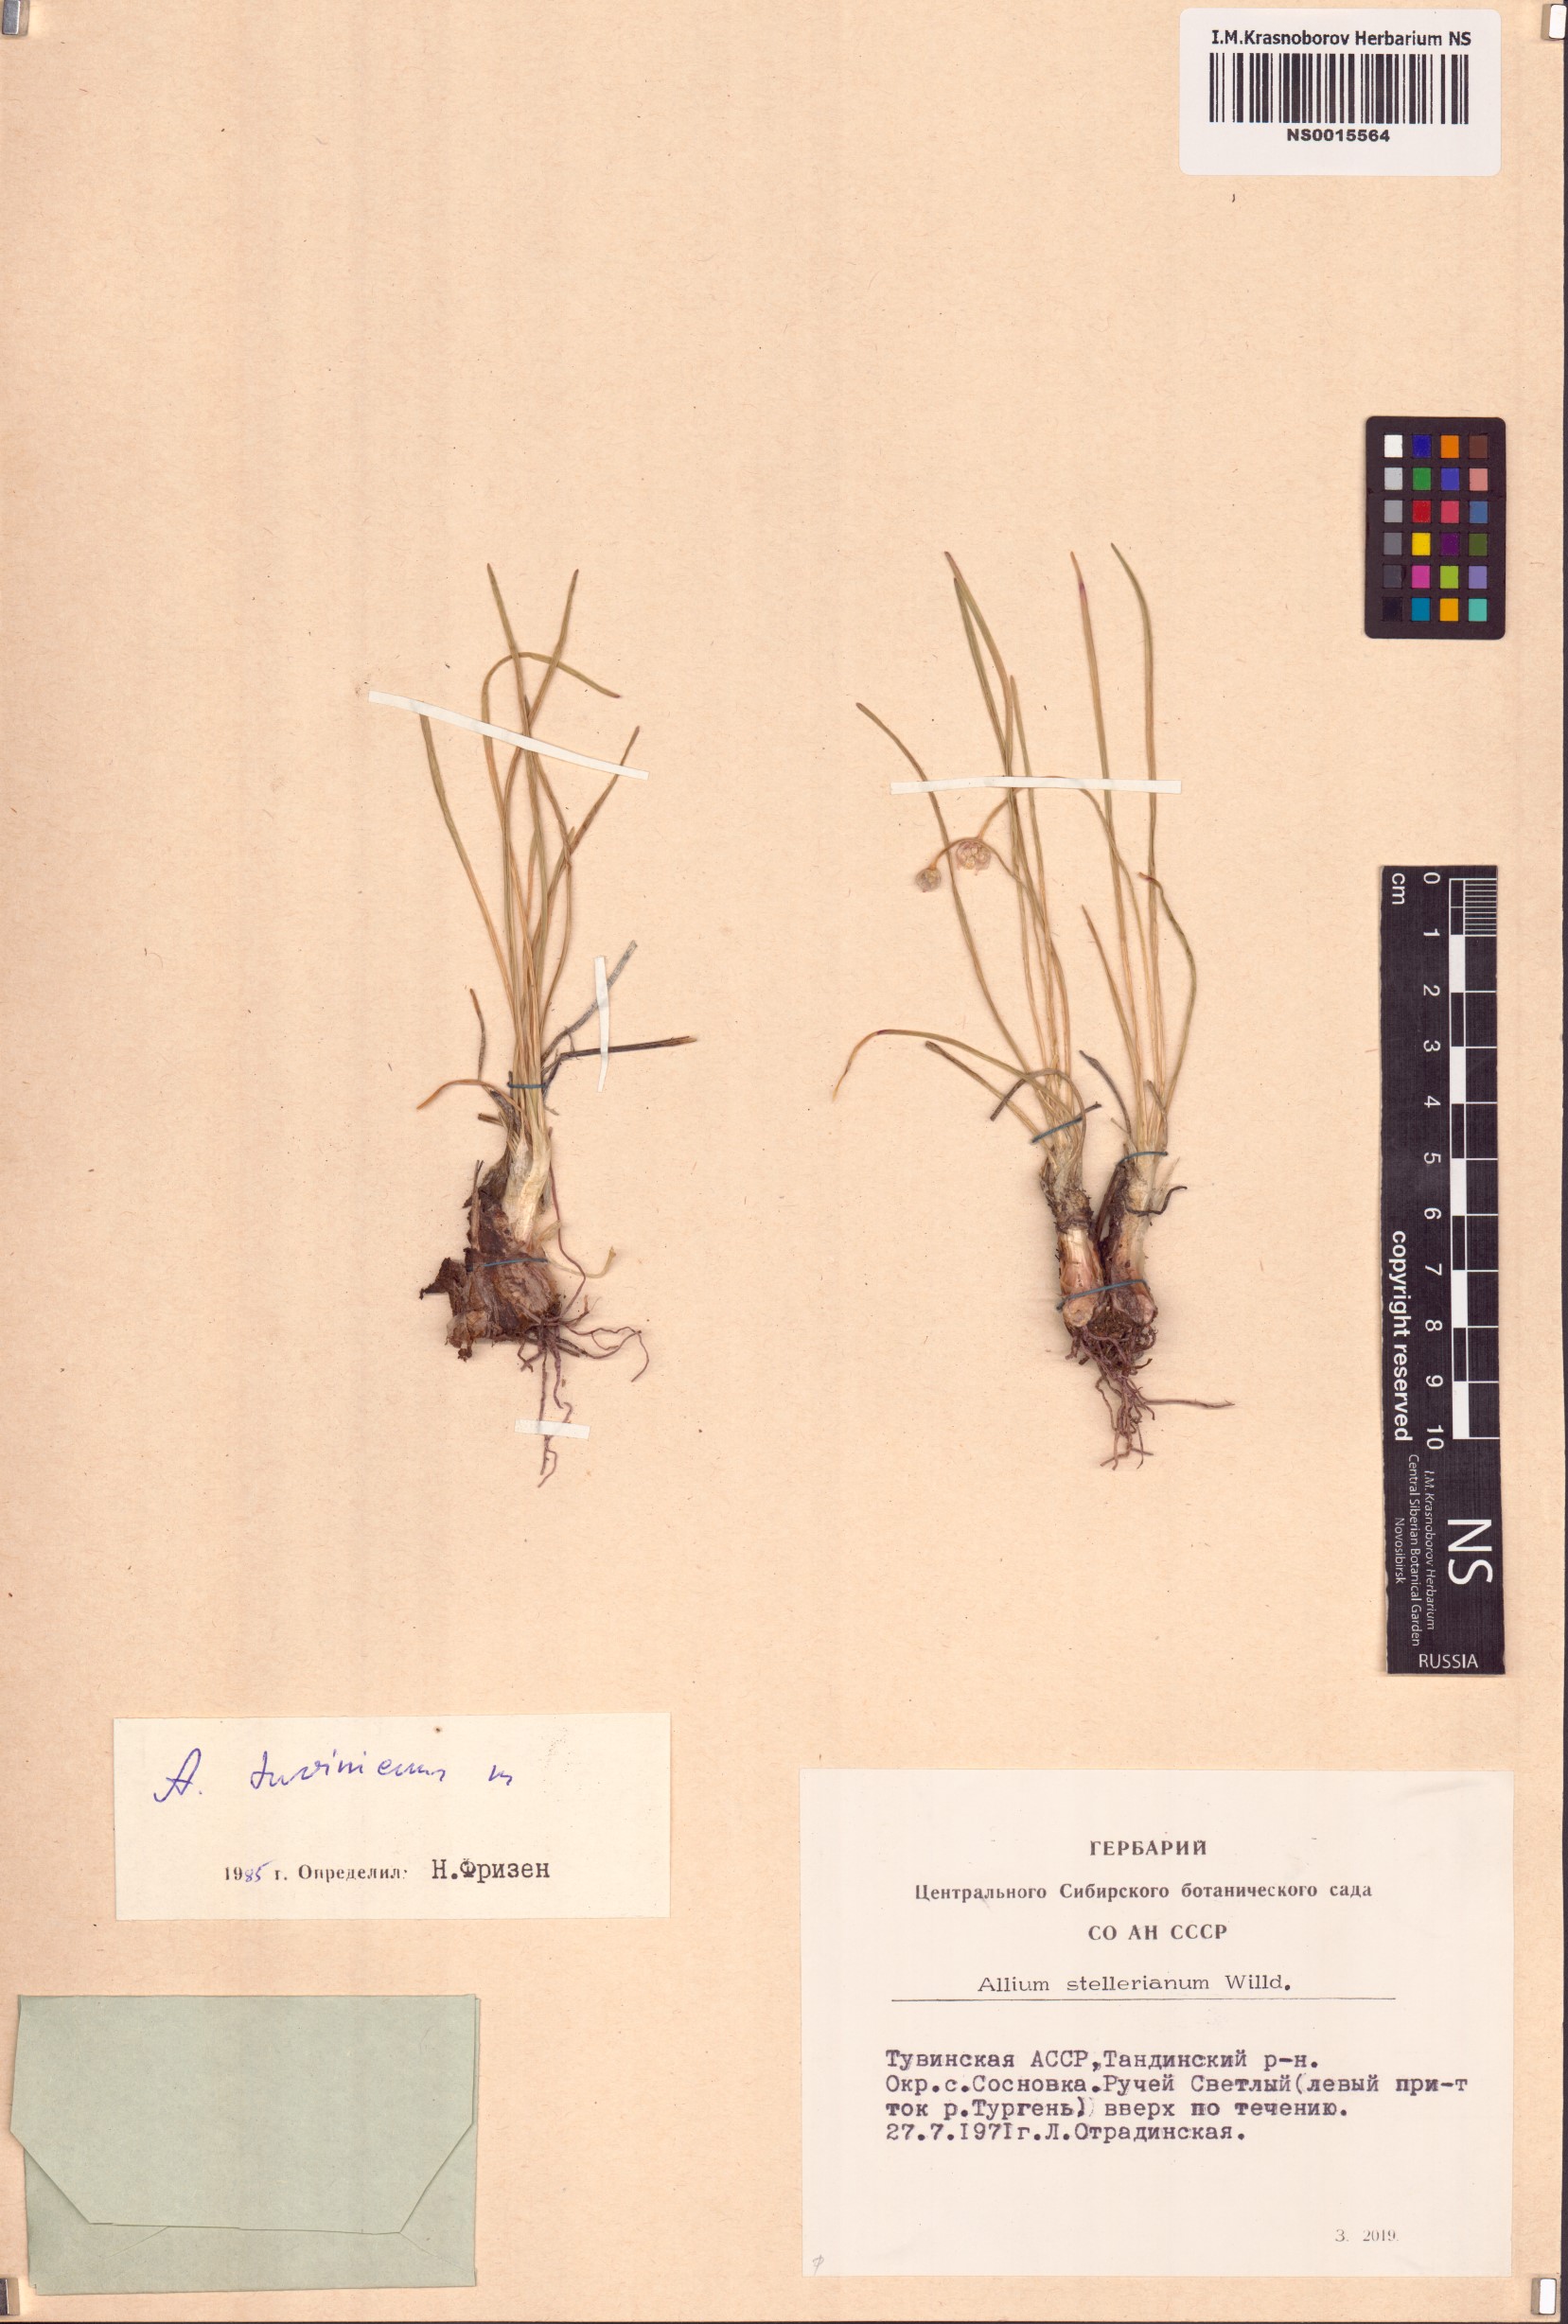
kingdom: Plantae
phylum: Tracheophyta
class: Liliopsida
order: Asparagales
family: Amaryllidaceae
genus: Allium
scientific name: Allium tuvinicum
